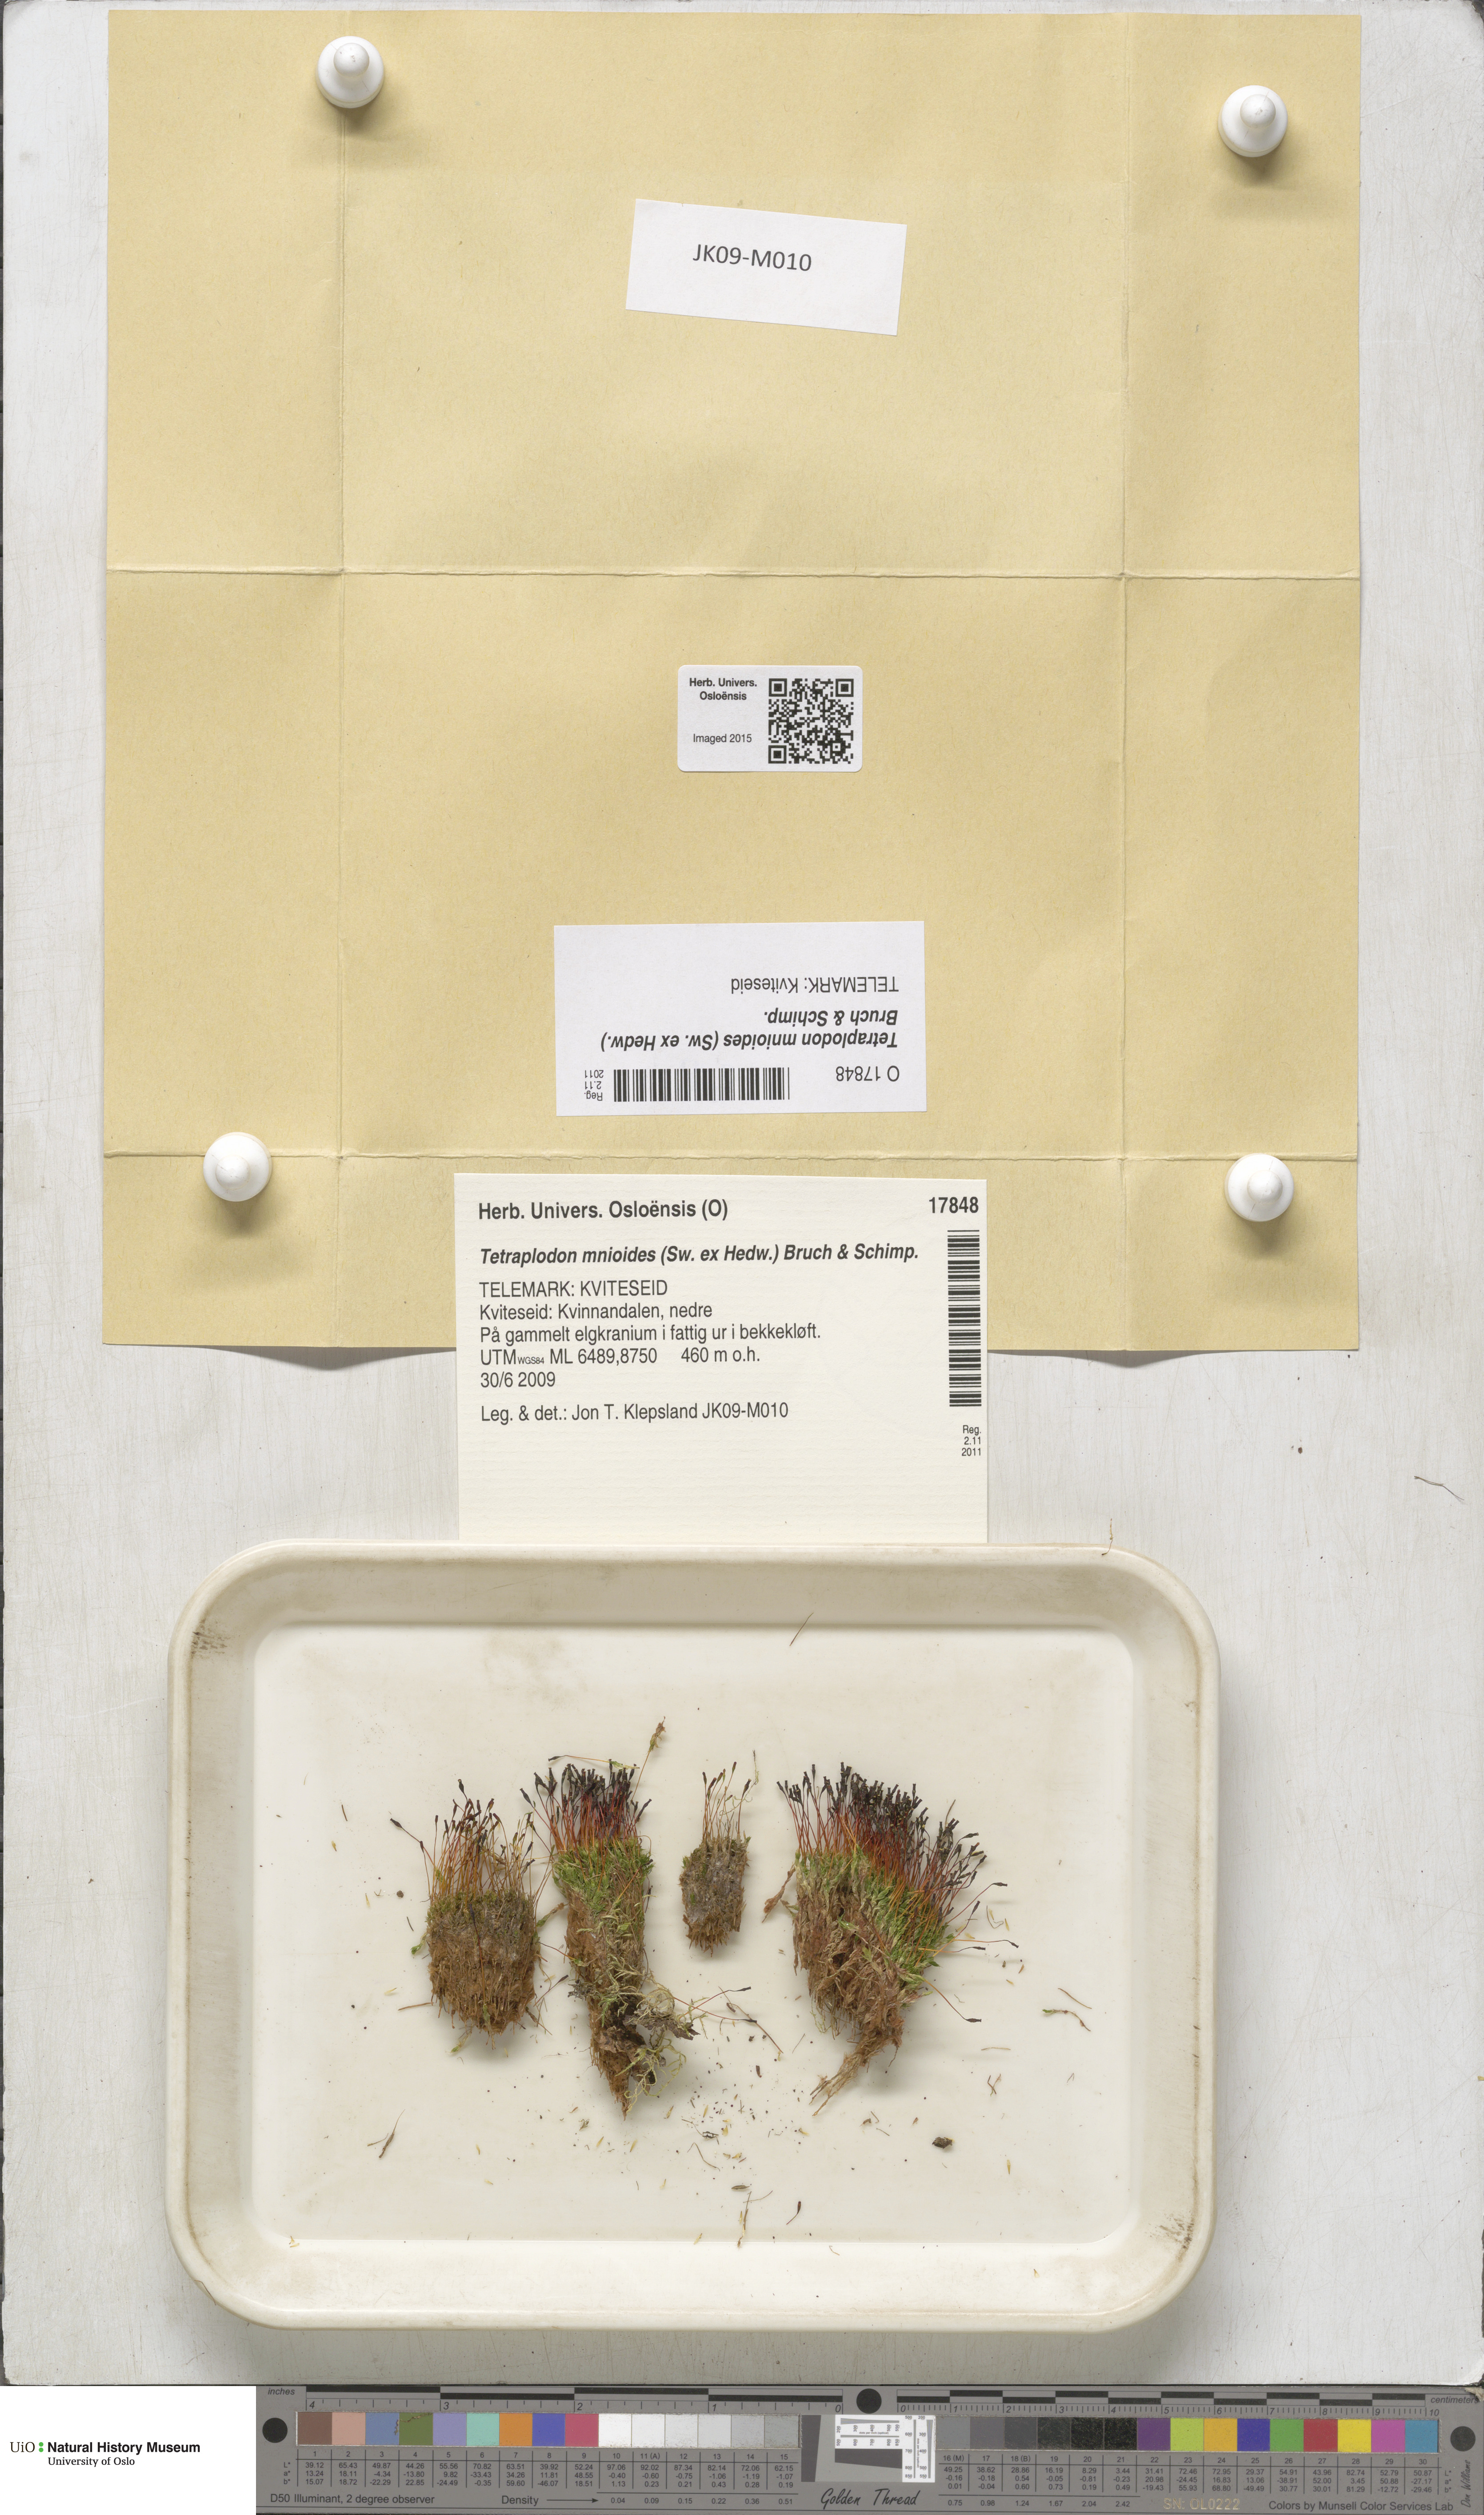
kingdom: Plantae
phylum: Bryophyta
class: Bryopsida
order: Splachnales
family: Splachnaceae
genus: Tetraplodon
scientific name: Tetraplodon mnioides
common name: Entire-leaved nitrogen moss
